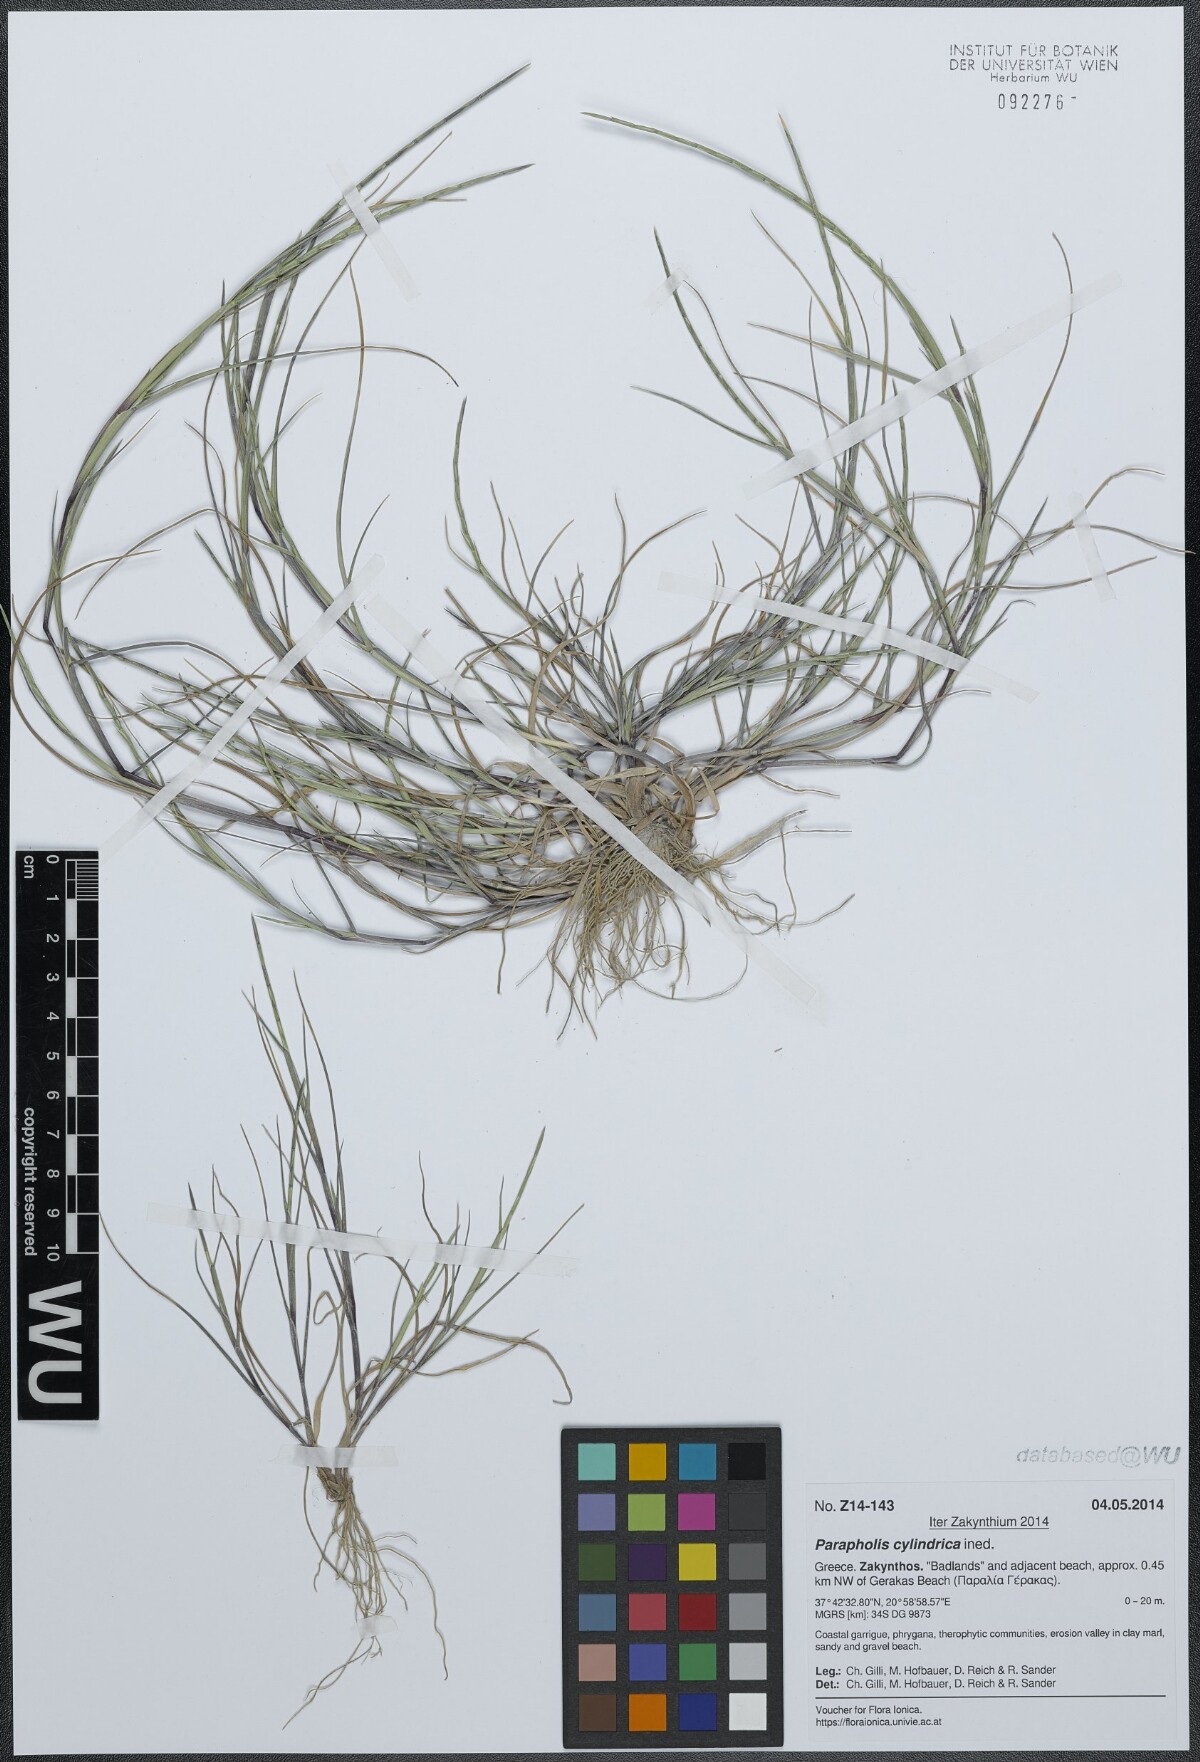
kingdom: Plantae
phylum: Tracheophyta
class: Liliopsida
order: Poales
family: Poaceae
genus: Parapholis
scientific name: Parapholis cylindrica
